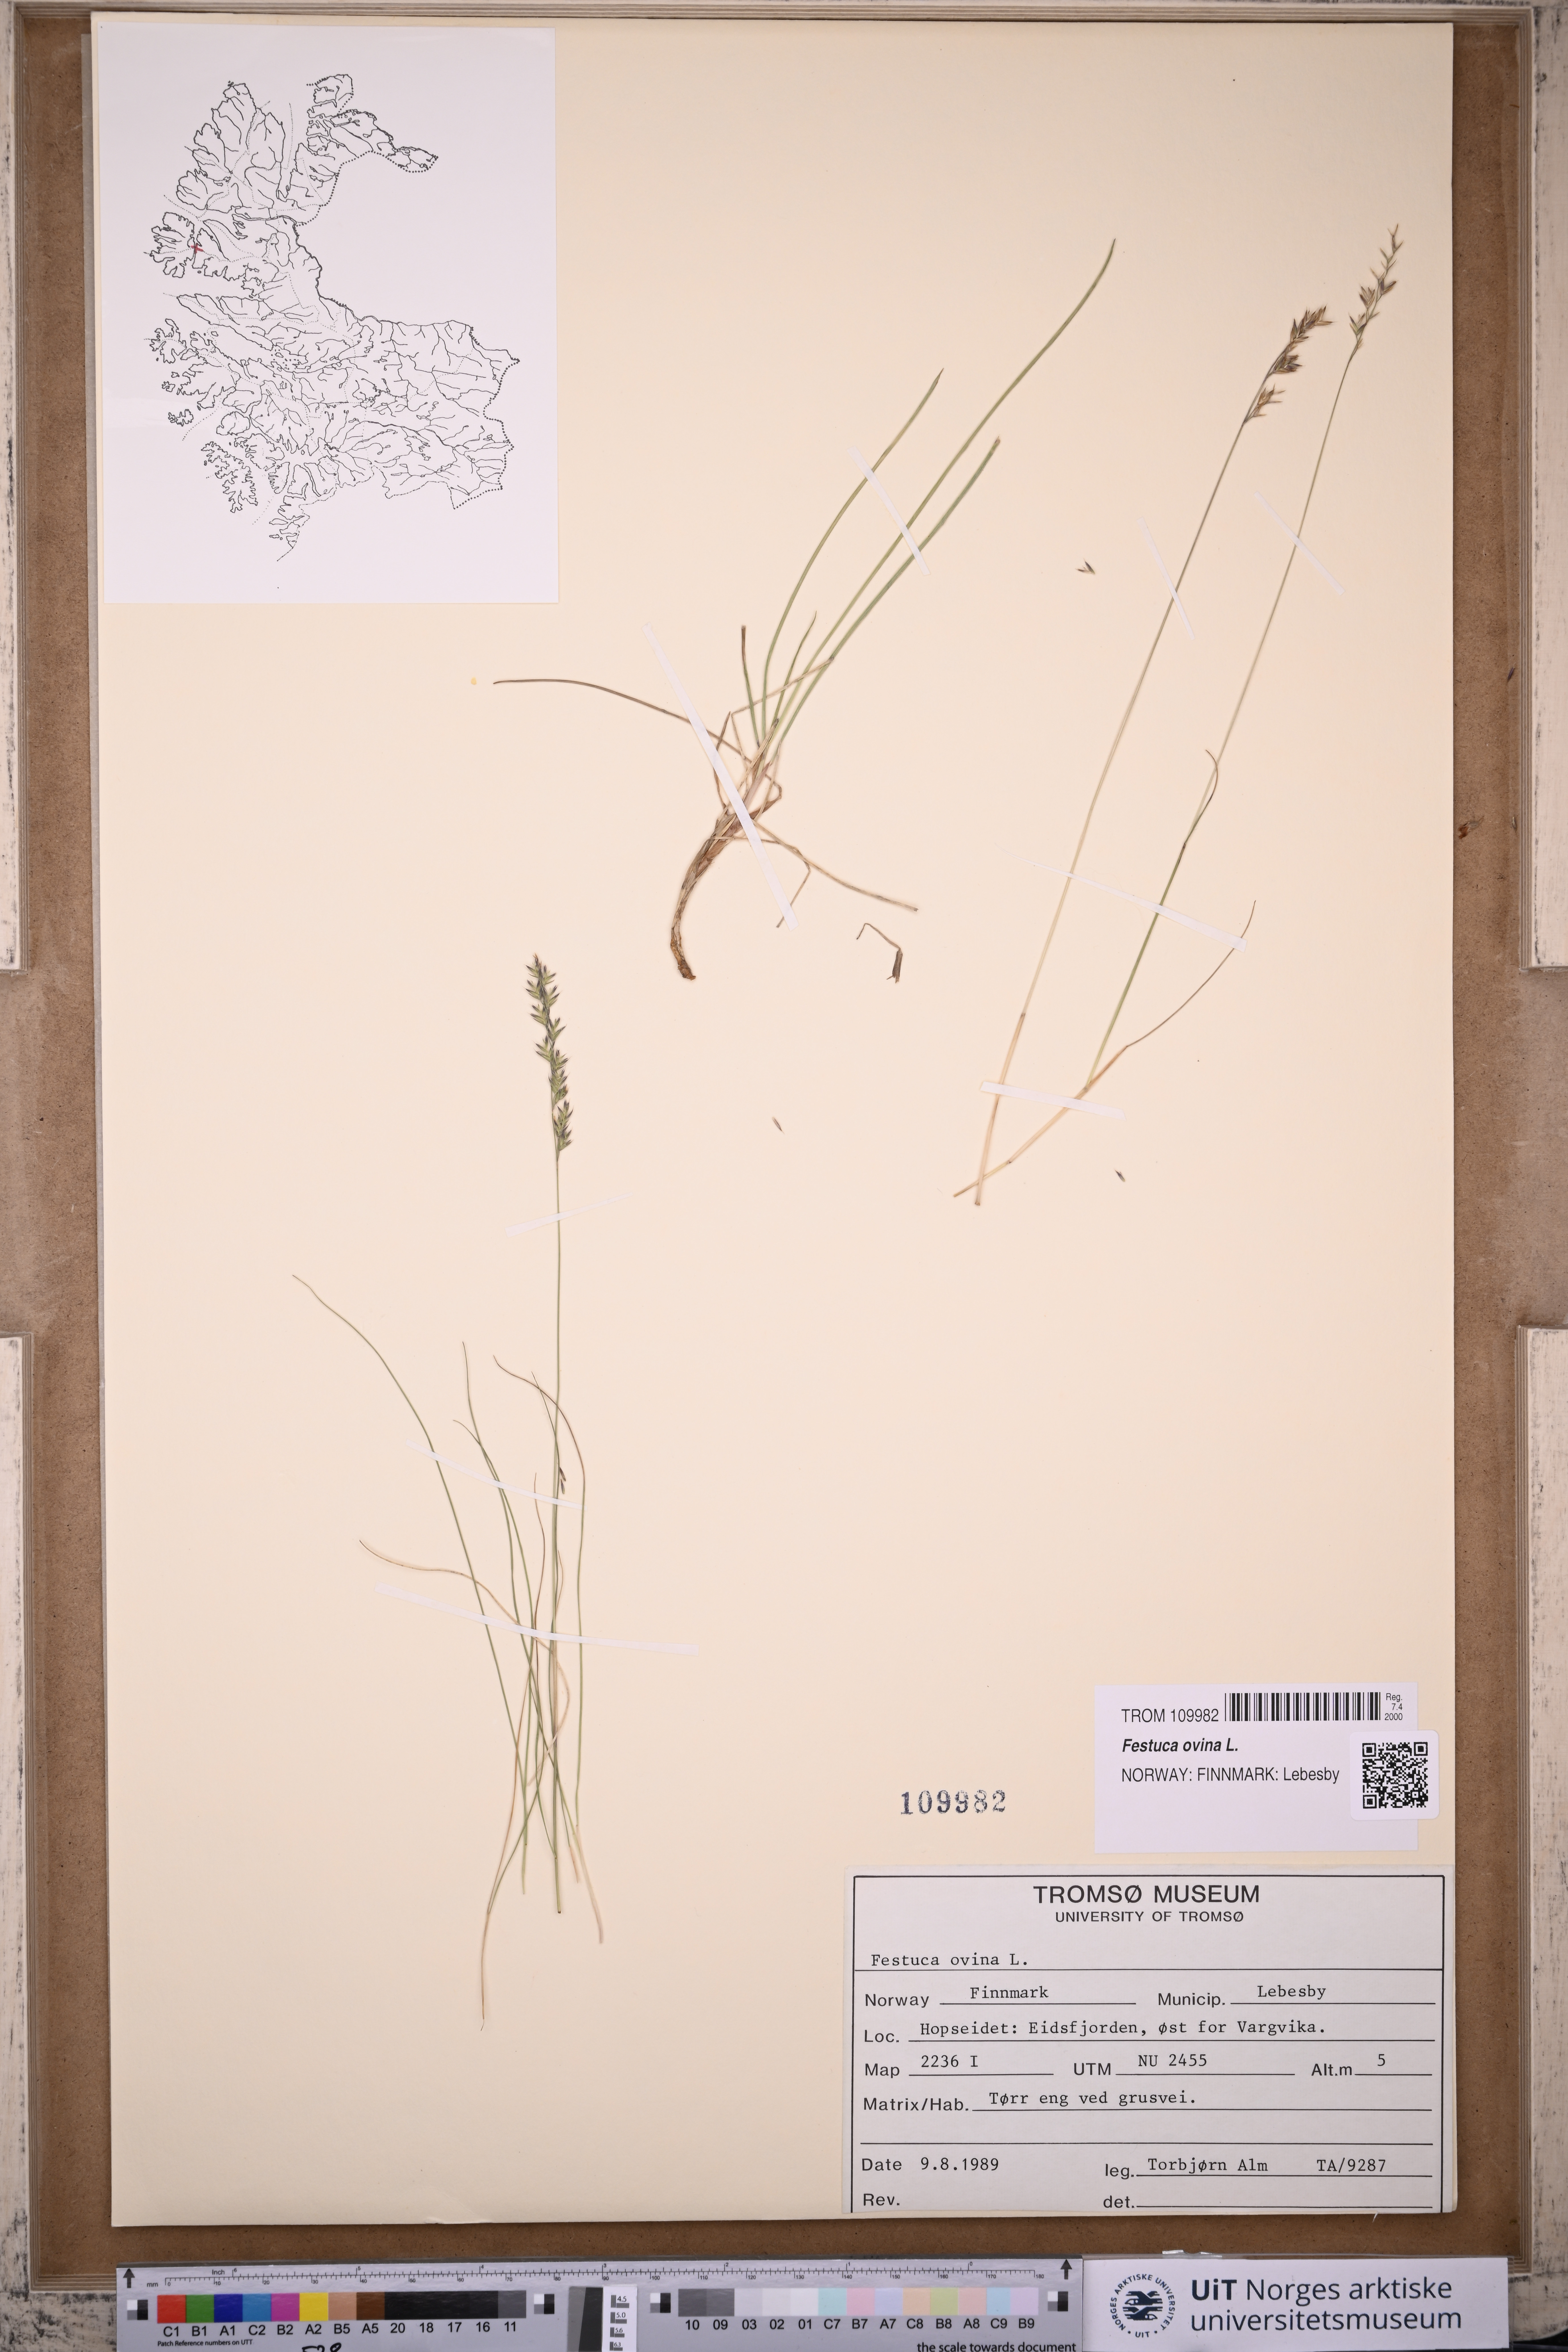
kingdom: Plantae
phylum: Tracheophyta
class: Liliopsida
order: Poales
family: Poaceae
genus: Festuca
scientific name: Festuca ovina
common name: Sheep fescue
